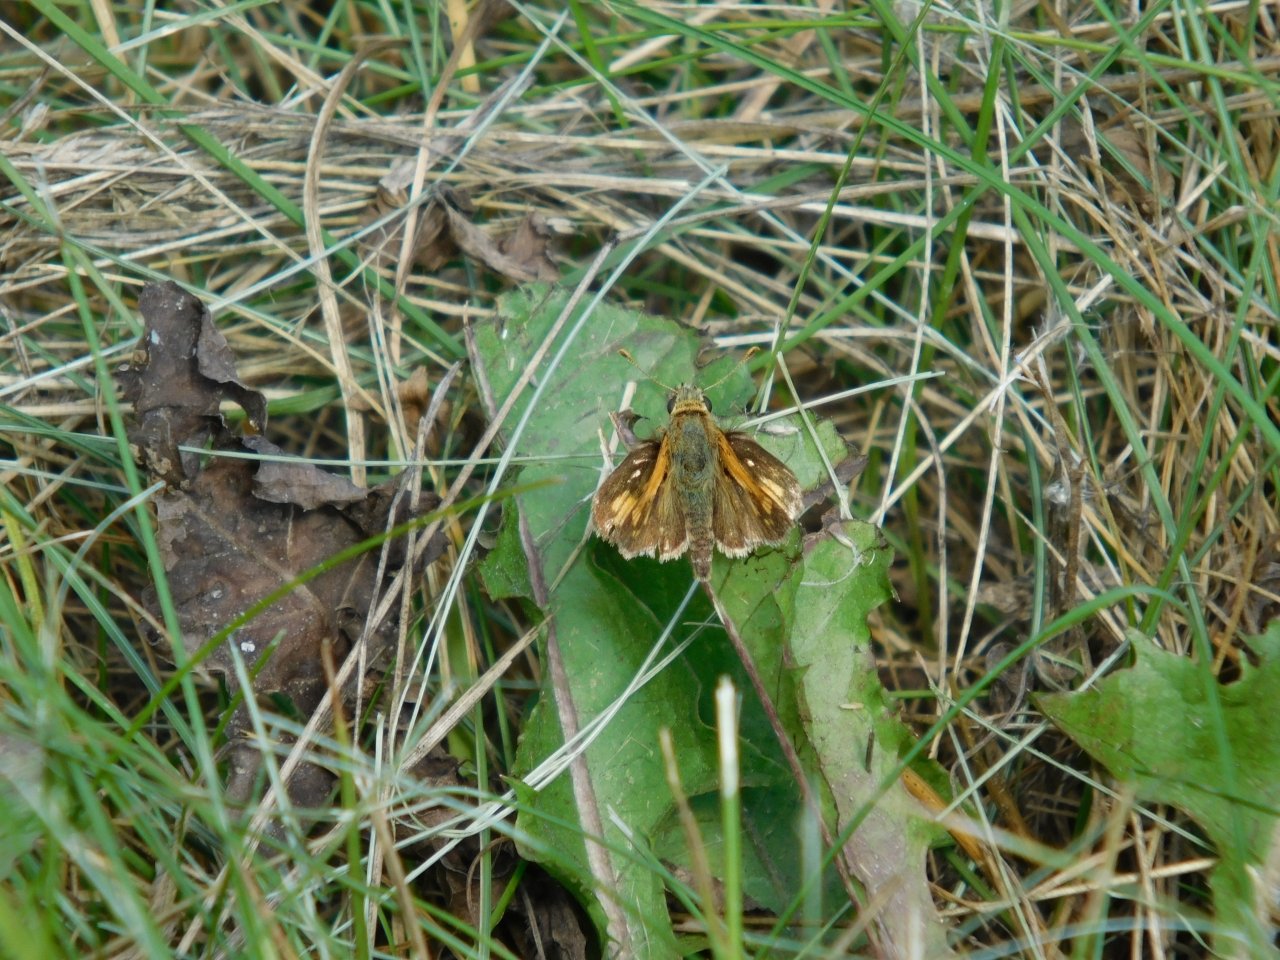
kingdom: Animalia
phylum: Arthropoda
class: Insecta
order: Lepidoptera
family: Hesperiidae
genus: Polites
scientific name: Polites coras
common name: Peck's Skipper
